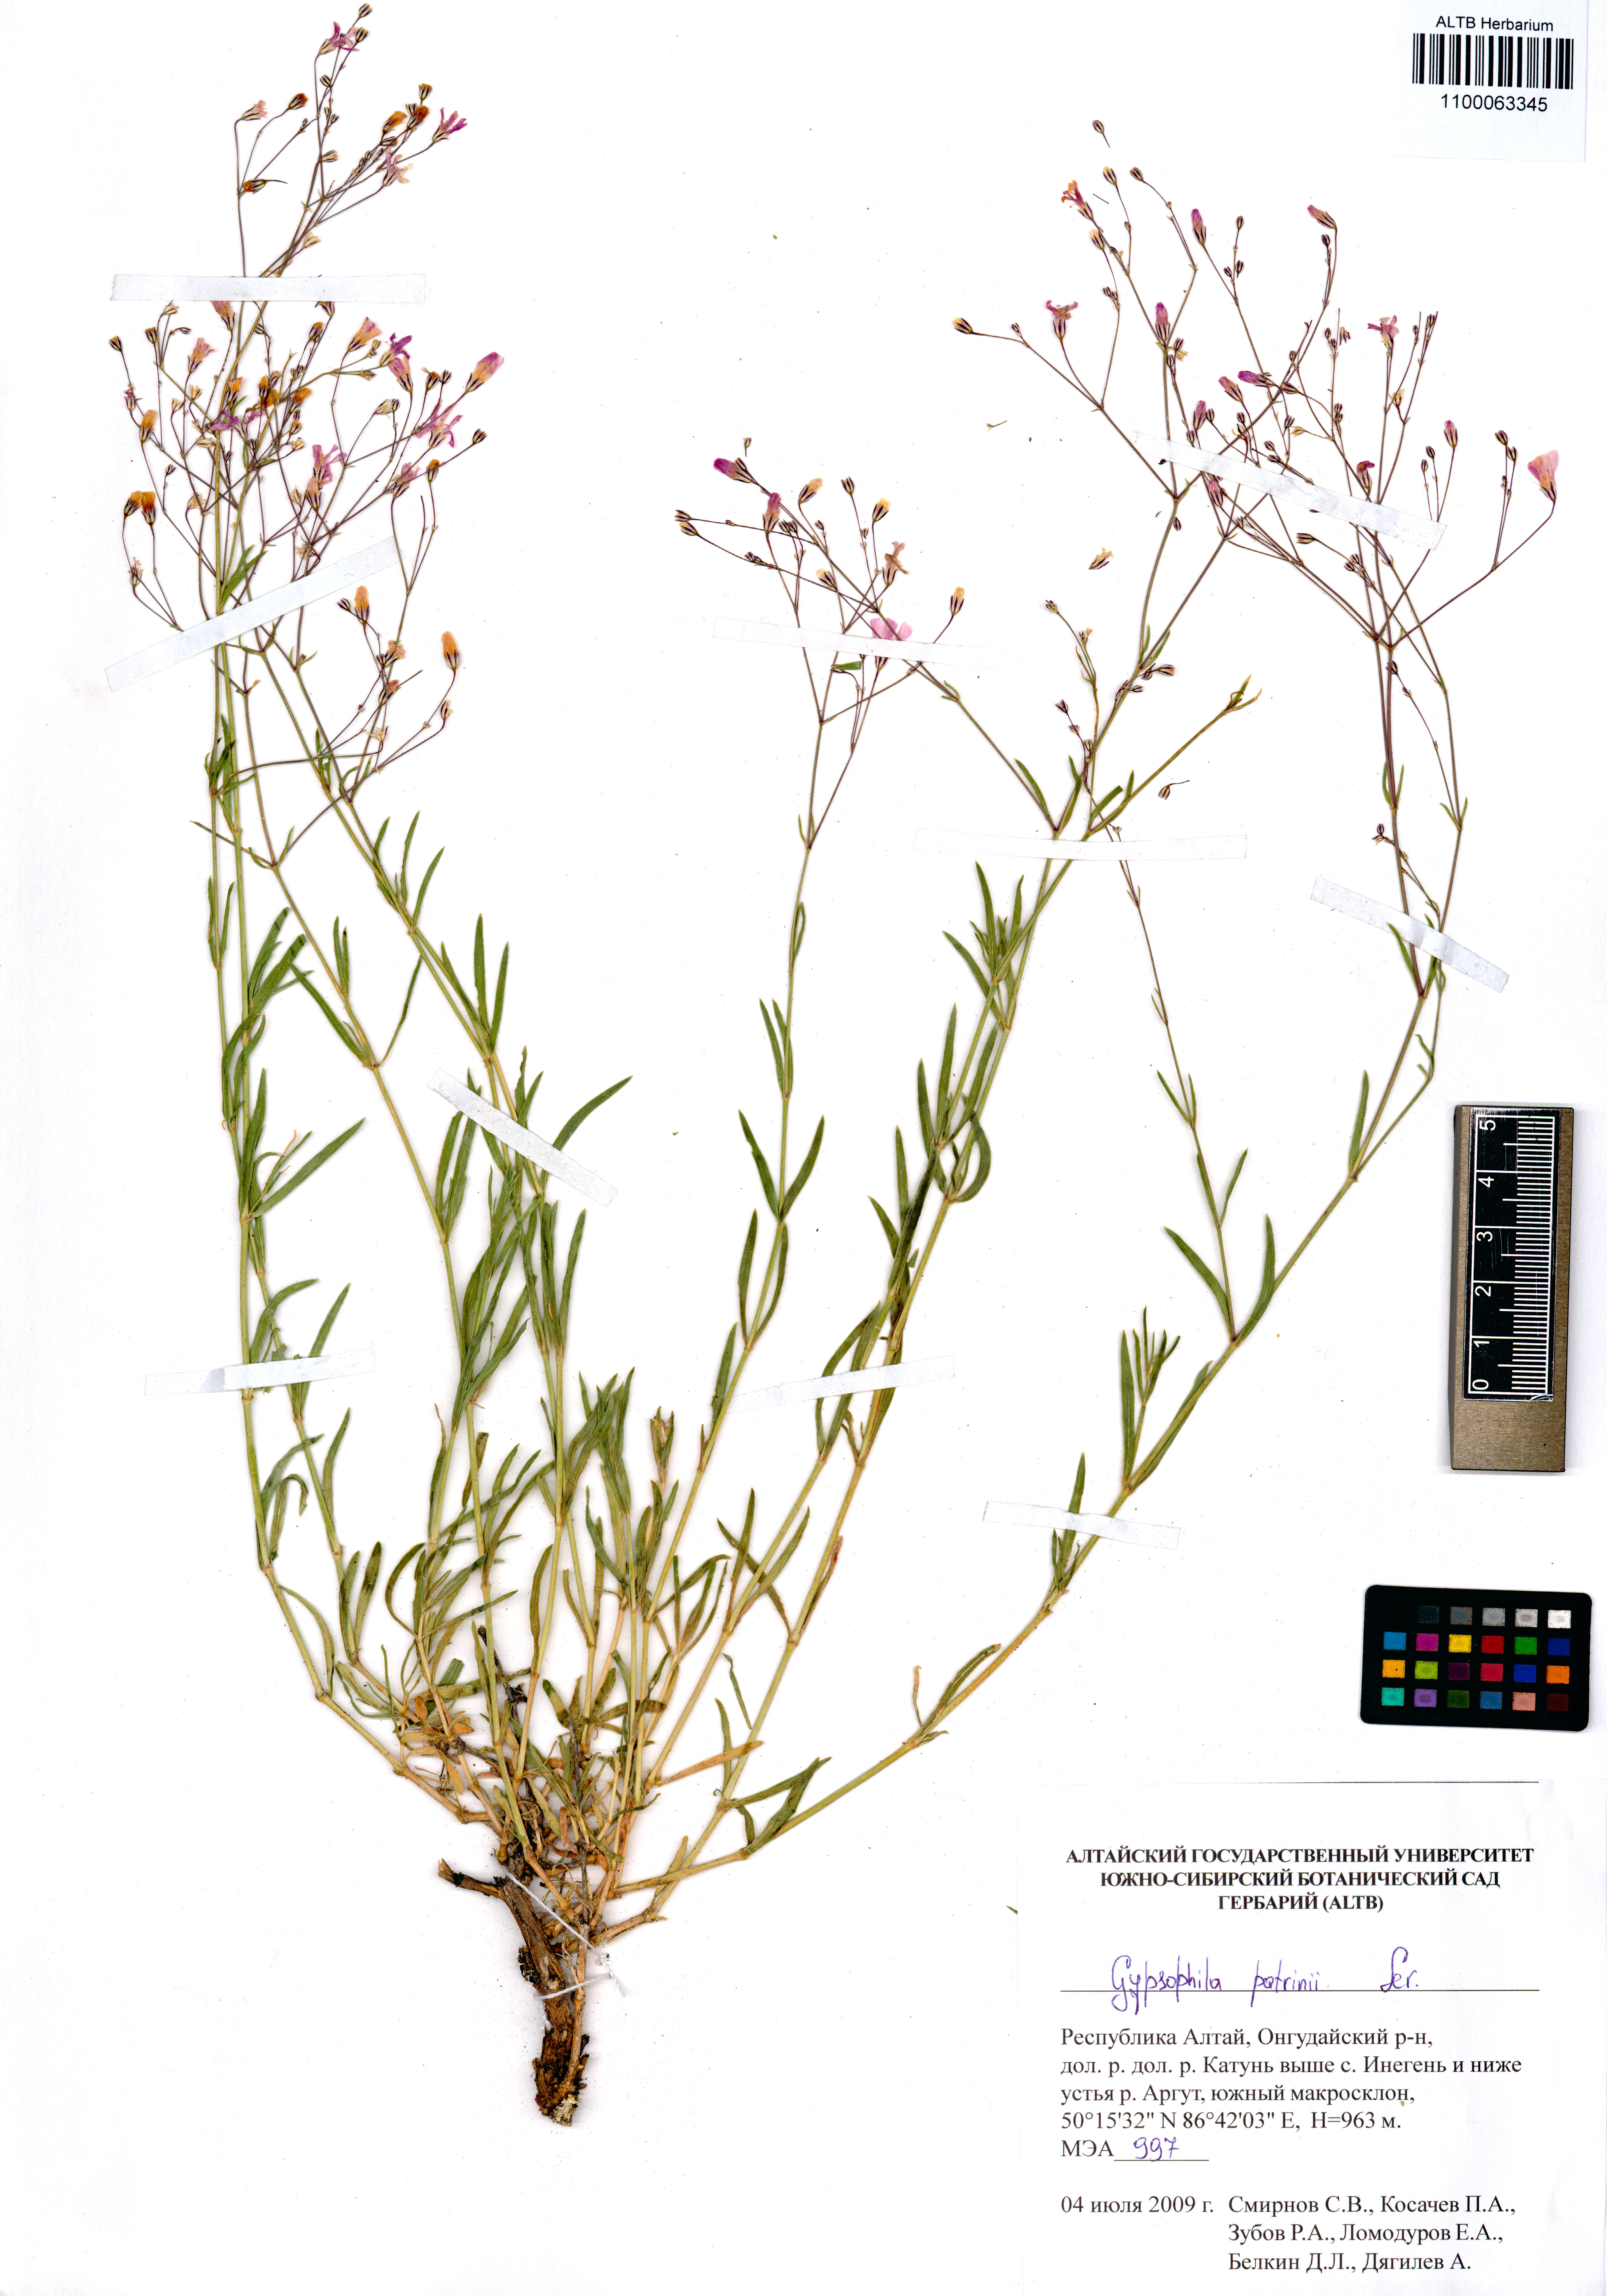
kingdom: Plantae
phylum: Tracheophyta
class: Magnoliopsida
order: Caryophyllales
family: Caryophyllaceae
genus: Gypsophila
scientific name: Gypsophila patrinii
